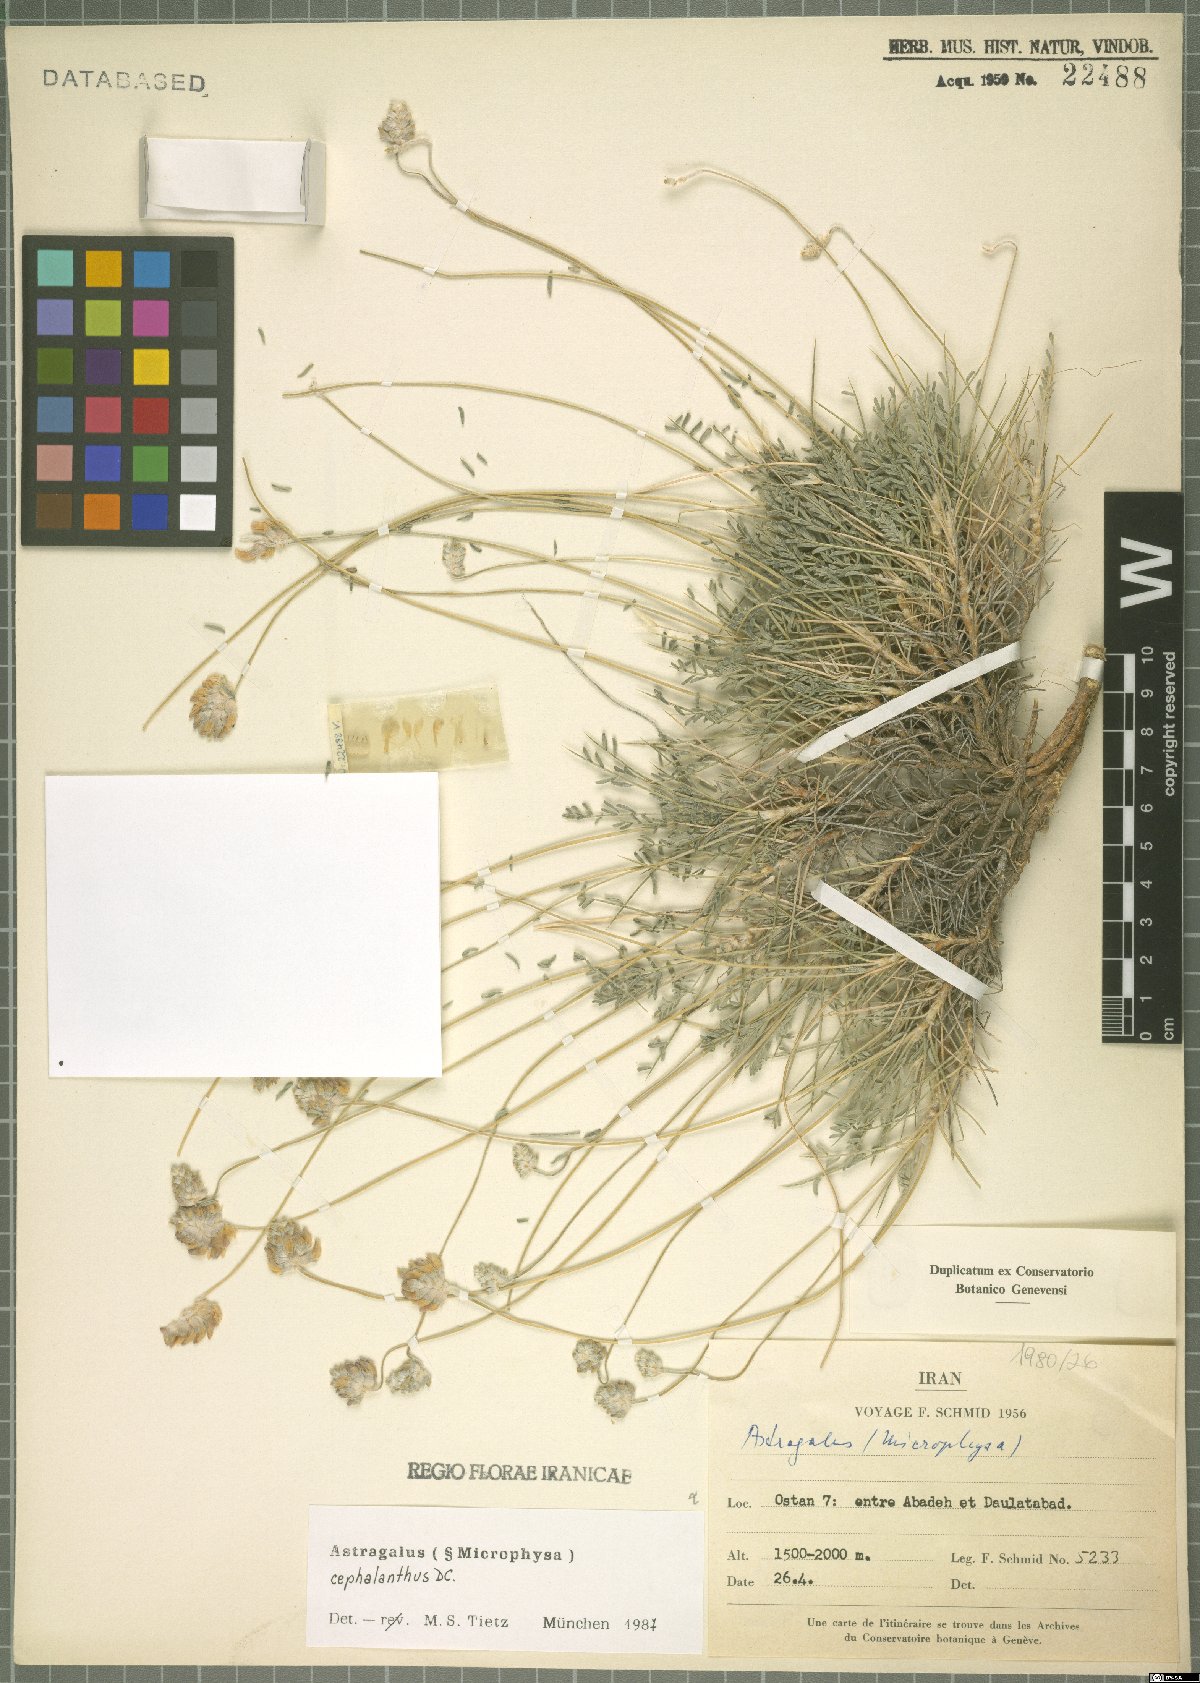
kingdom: Plantae
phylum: Tracheophyta
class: Magnoliopsida
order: Fabales
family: Fabaceae
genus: Astragalus
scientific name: Astragalus cephalanthus
